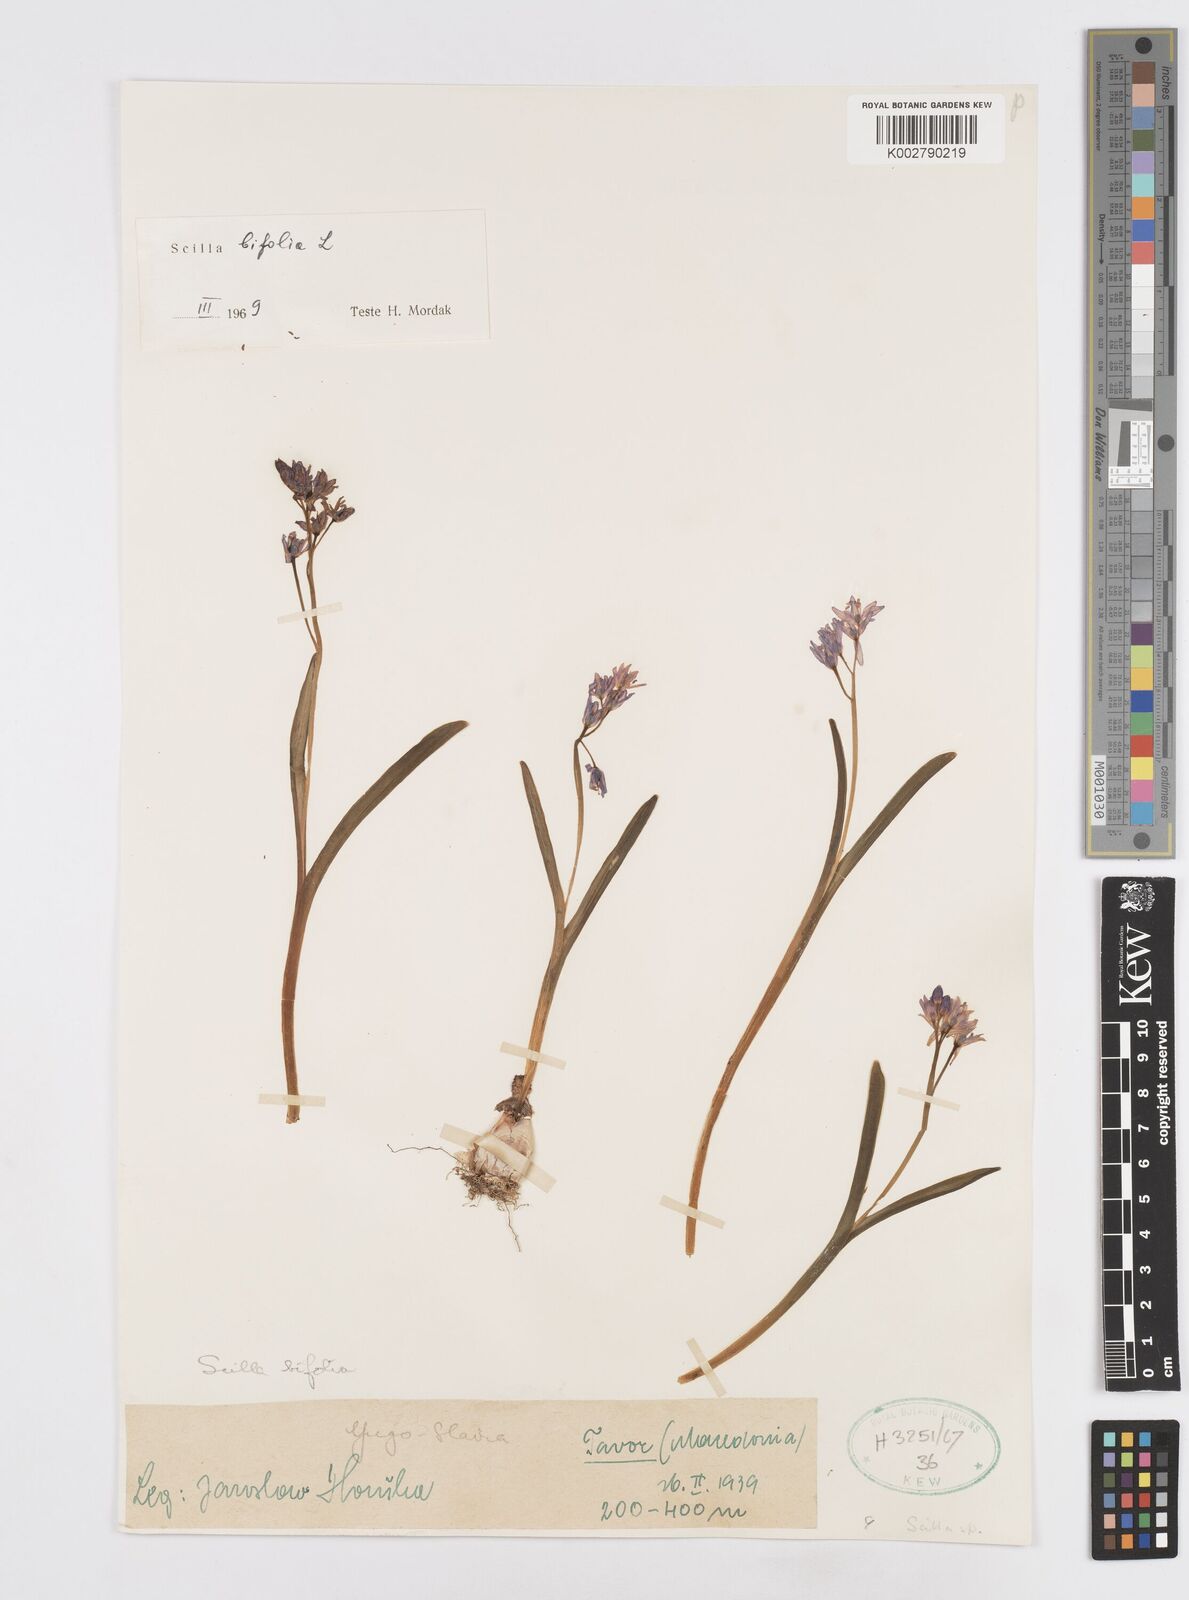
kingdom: Plantae
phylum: Tracheophyta
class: Liliopsida
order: Asparagales
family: Asparagaceae
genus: Scilla
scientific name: Scilla bifolia
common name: Alpine squill
